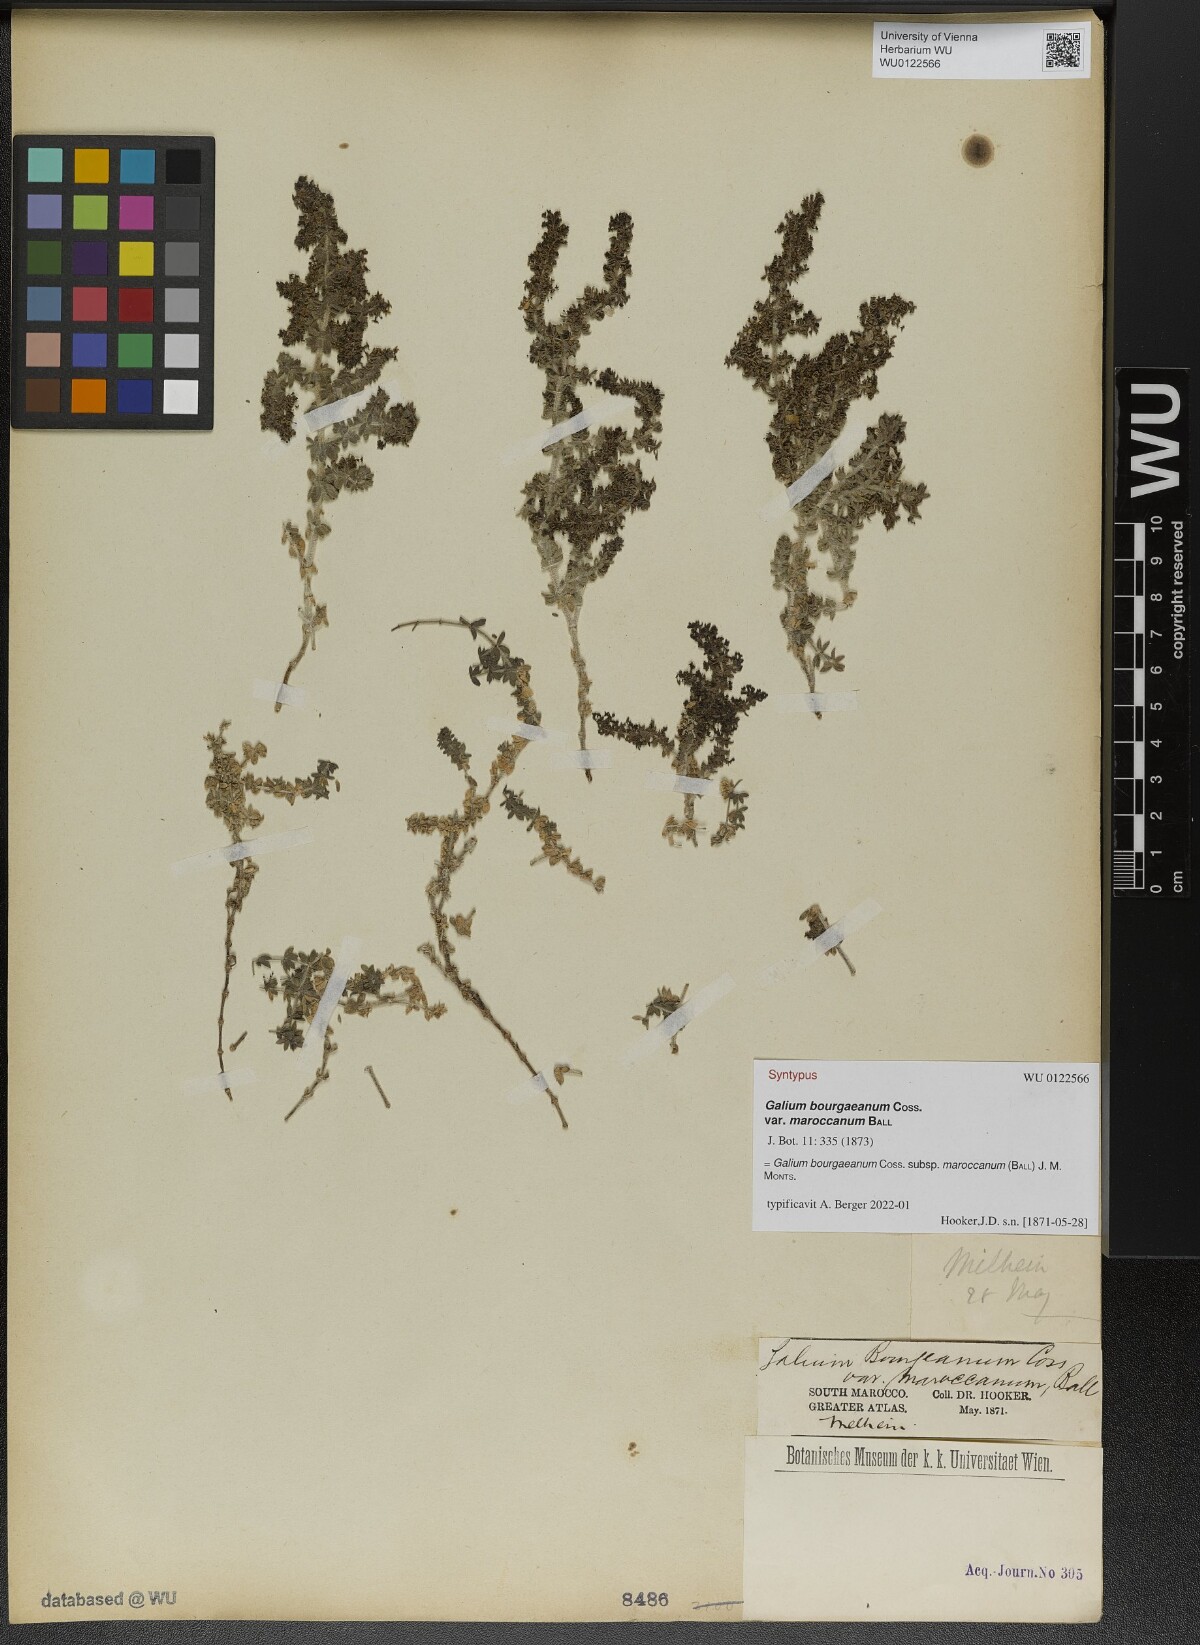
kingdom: Plantae
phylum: Tracheophyta
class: Magnoliopsida
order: Gentianales
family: Rubiaceae
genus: Galium
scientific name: Galium bourgaeanum
